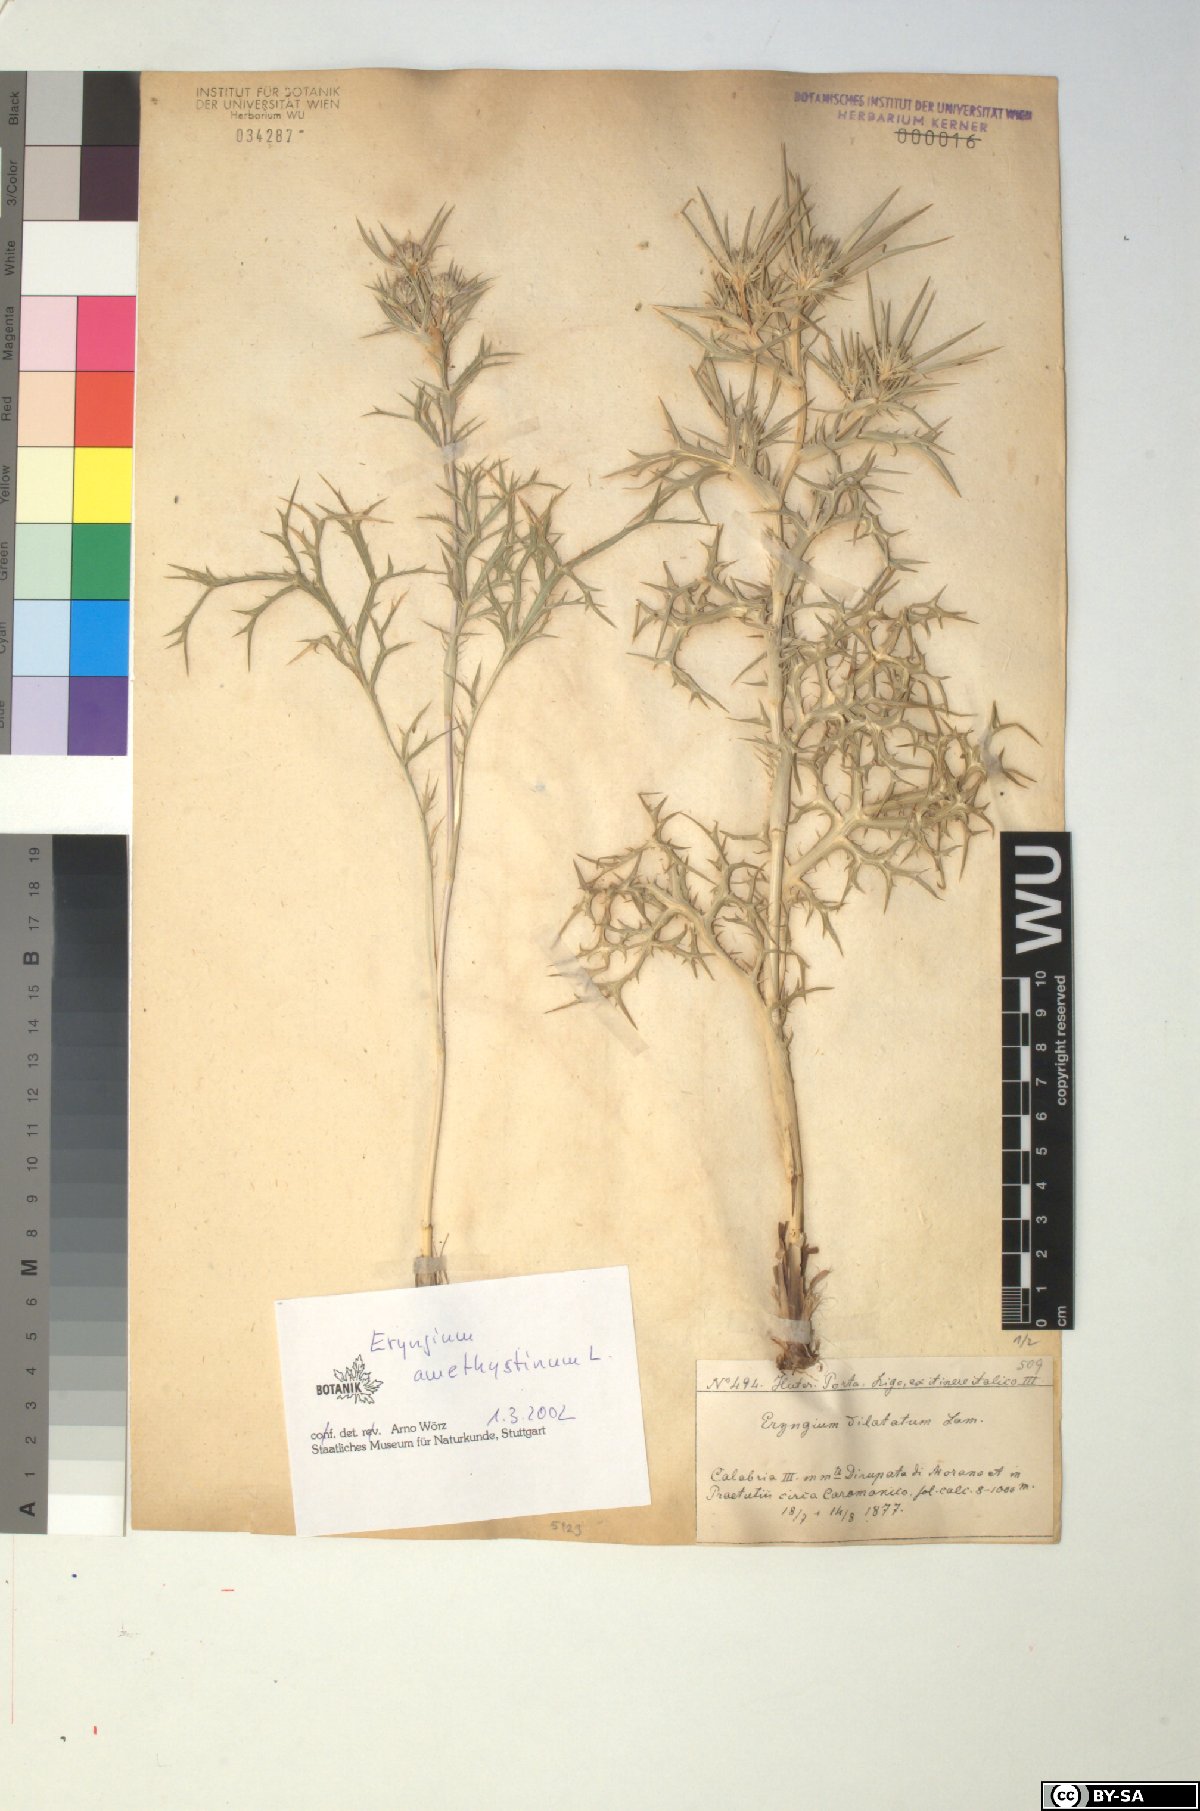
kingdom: Plantae
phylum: Tracheophyta
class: Magnoliopsida
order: Apiales
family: Apiaceae
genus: Eryngium
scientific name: Eryngium amethystinum
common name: Amethyst eryngo
